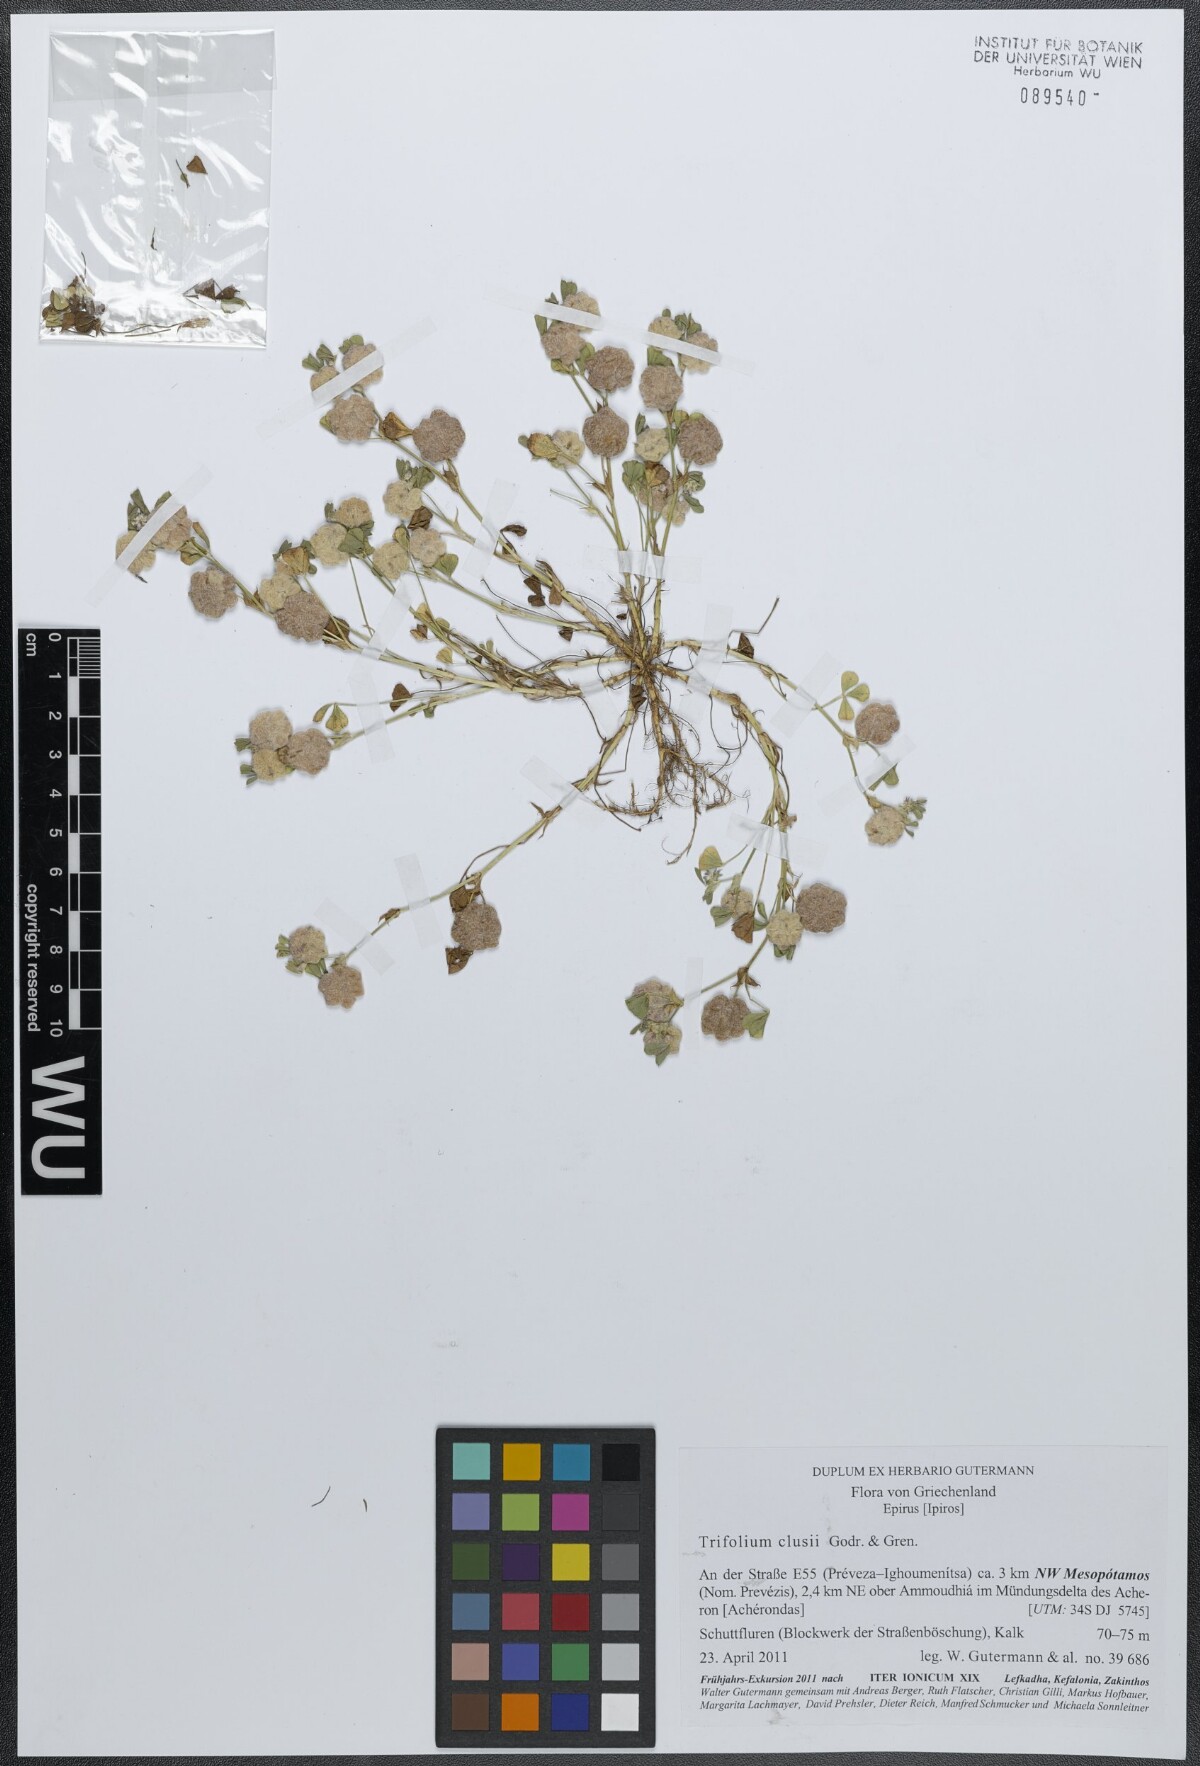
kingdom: Plantae
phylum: Tracheophyta
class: Magnoliopsida
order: Fabales
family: Fabaceae
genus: Trifolium
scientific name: Trifolium clusii
